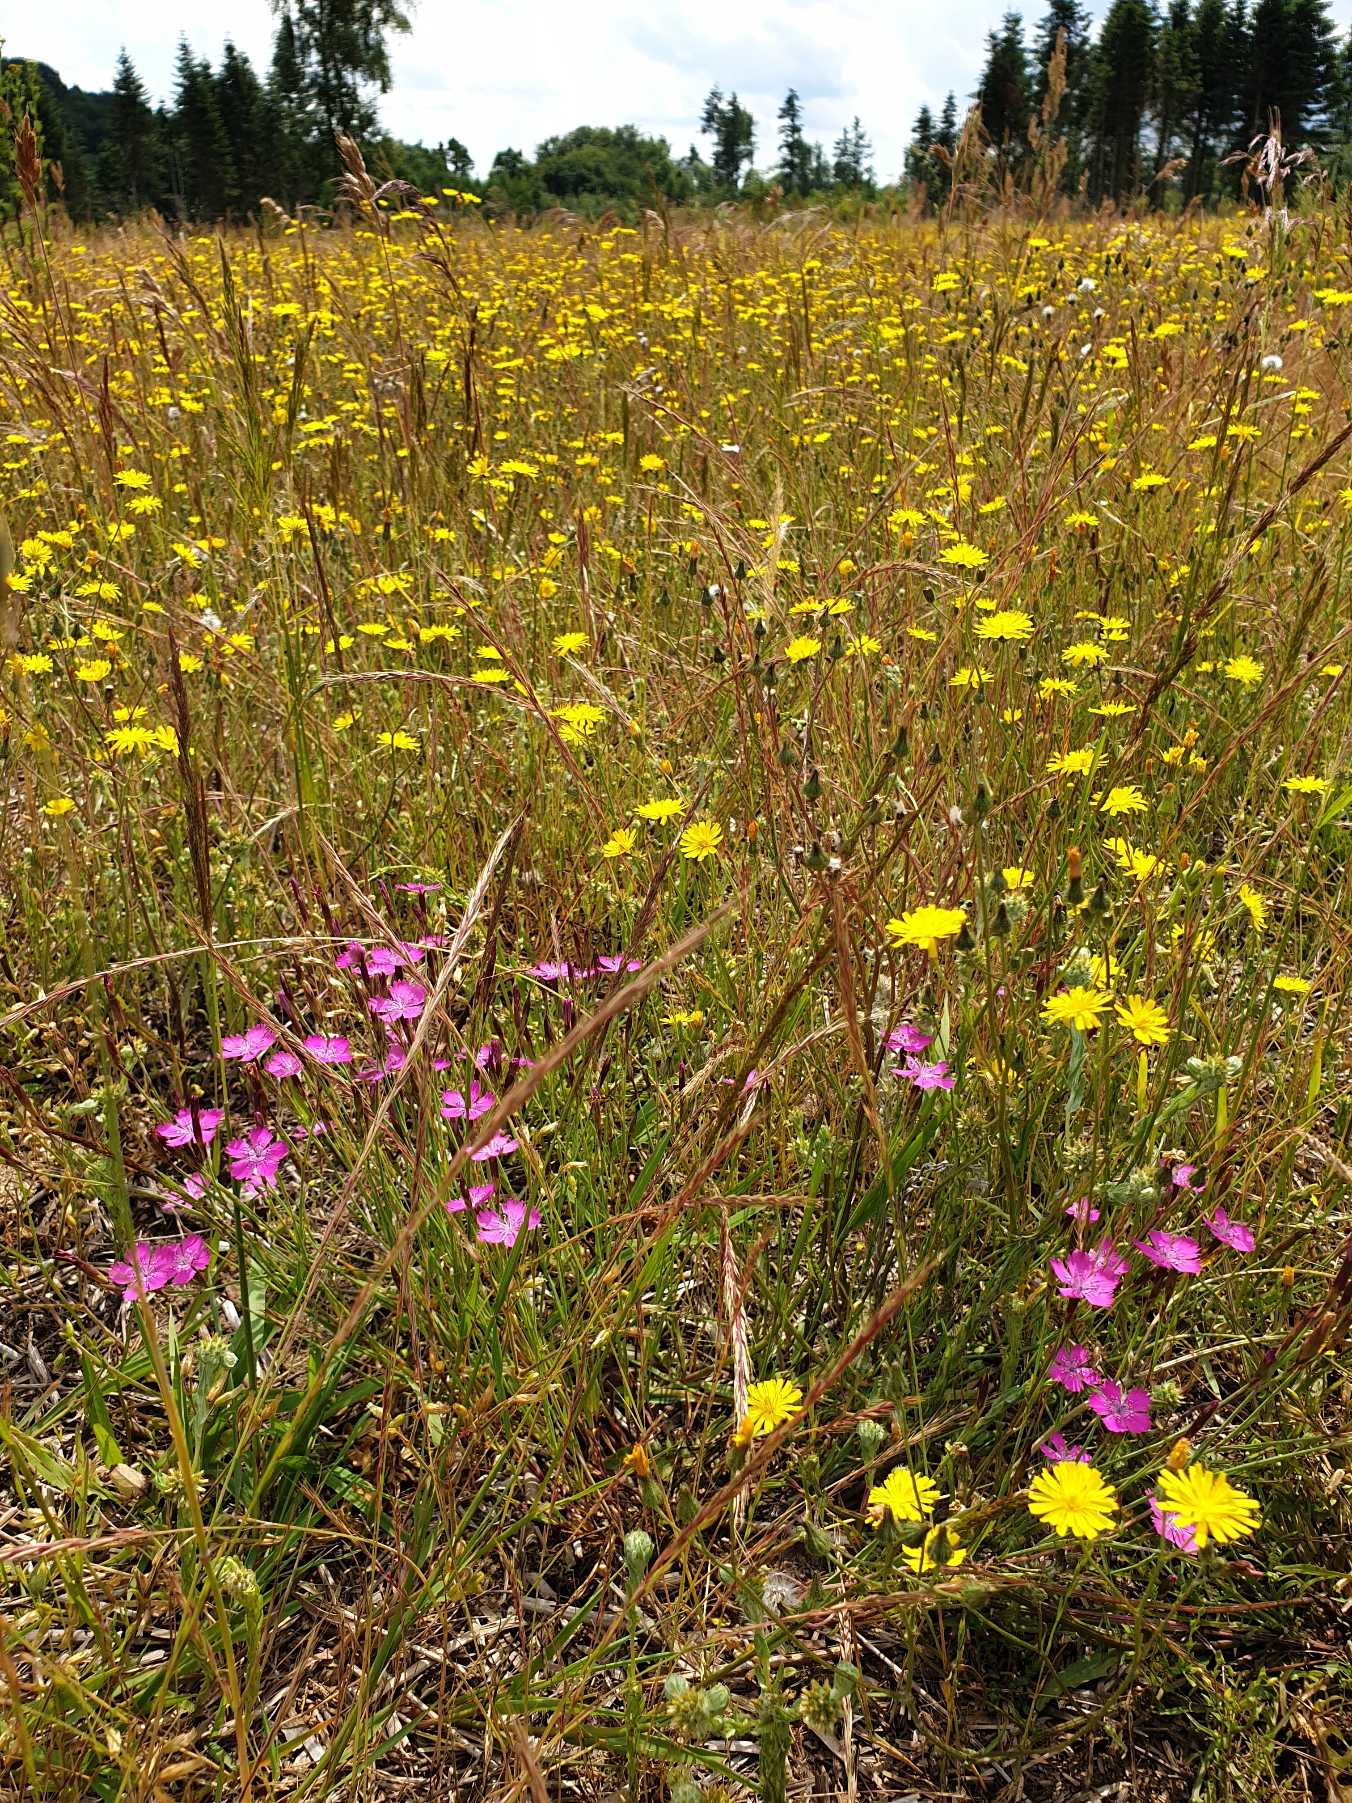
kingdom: Plantae
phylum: Tracheophyta
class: Magnoliopsida
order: Caryophyllales
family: Caryophyllaceae
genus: Dianthus
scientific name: Dianthus deltoides
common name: Bakke-nellike
